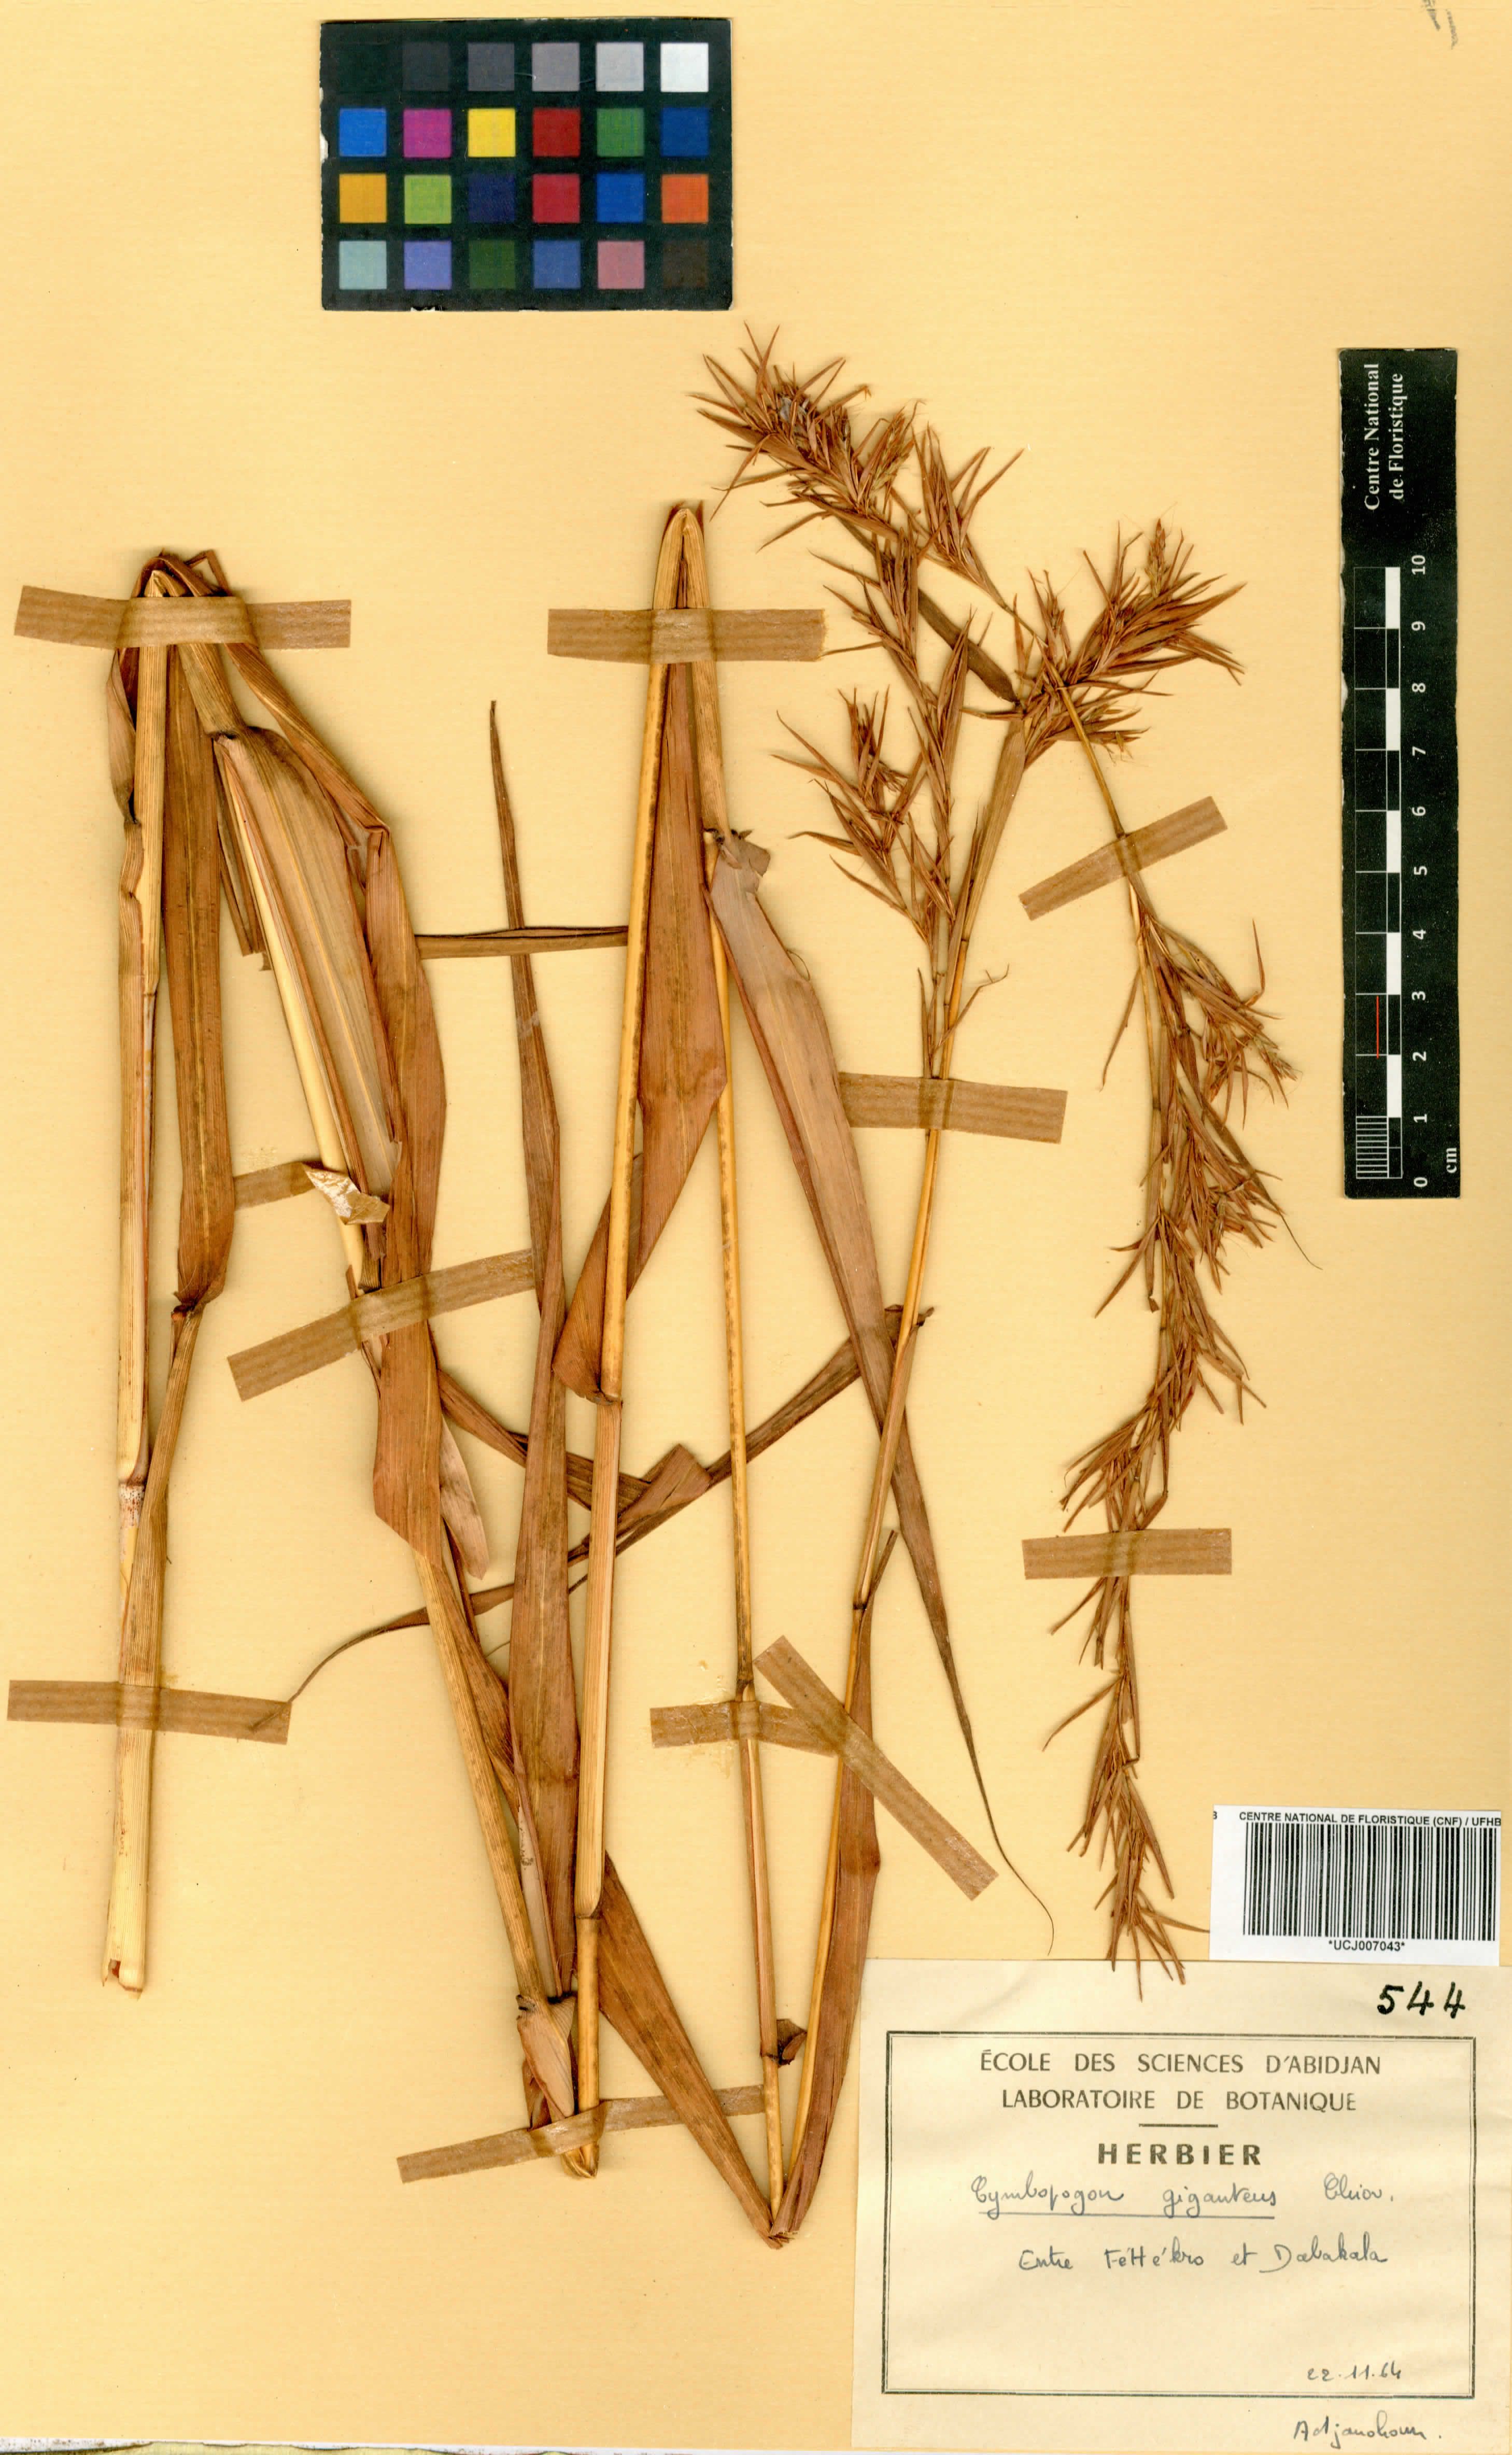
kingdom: Plantae
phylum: Tracheophyta
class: Liliopsida
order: Poales
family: Poaceae
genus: Cymbopogon
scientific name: Cymbopogon giganteus
